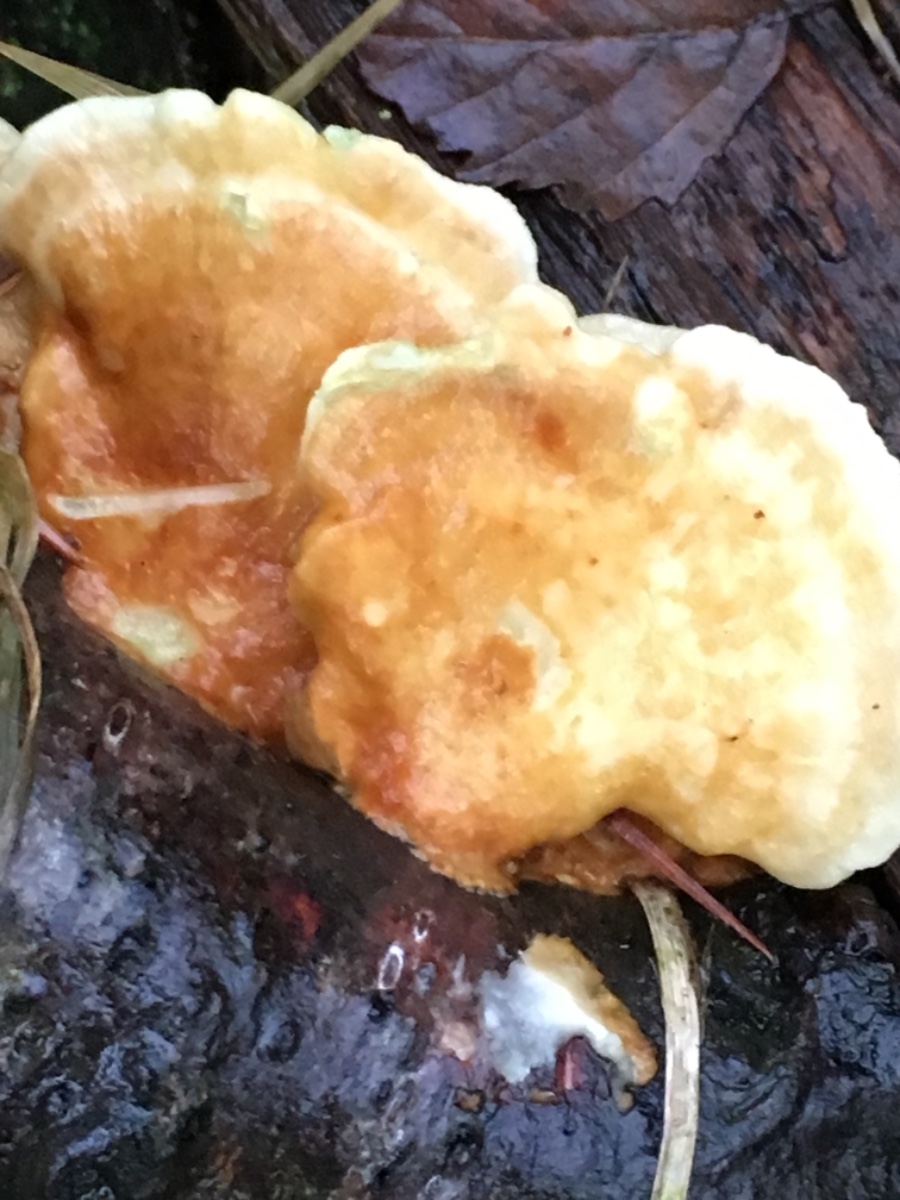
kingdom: Fungi
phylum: Basidiomycota
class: Agaricomycetes
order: Polyporales
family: Polyporaceae
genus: Trametes
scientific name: Trametes
